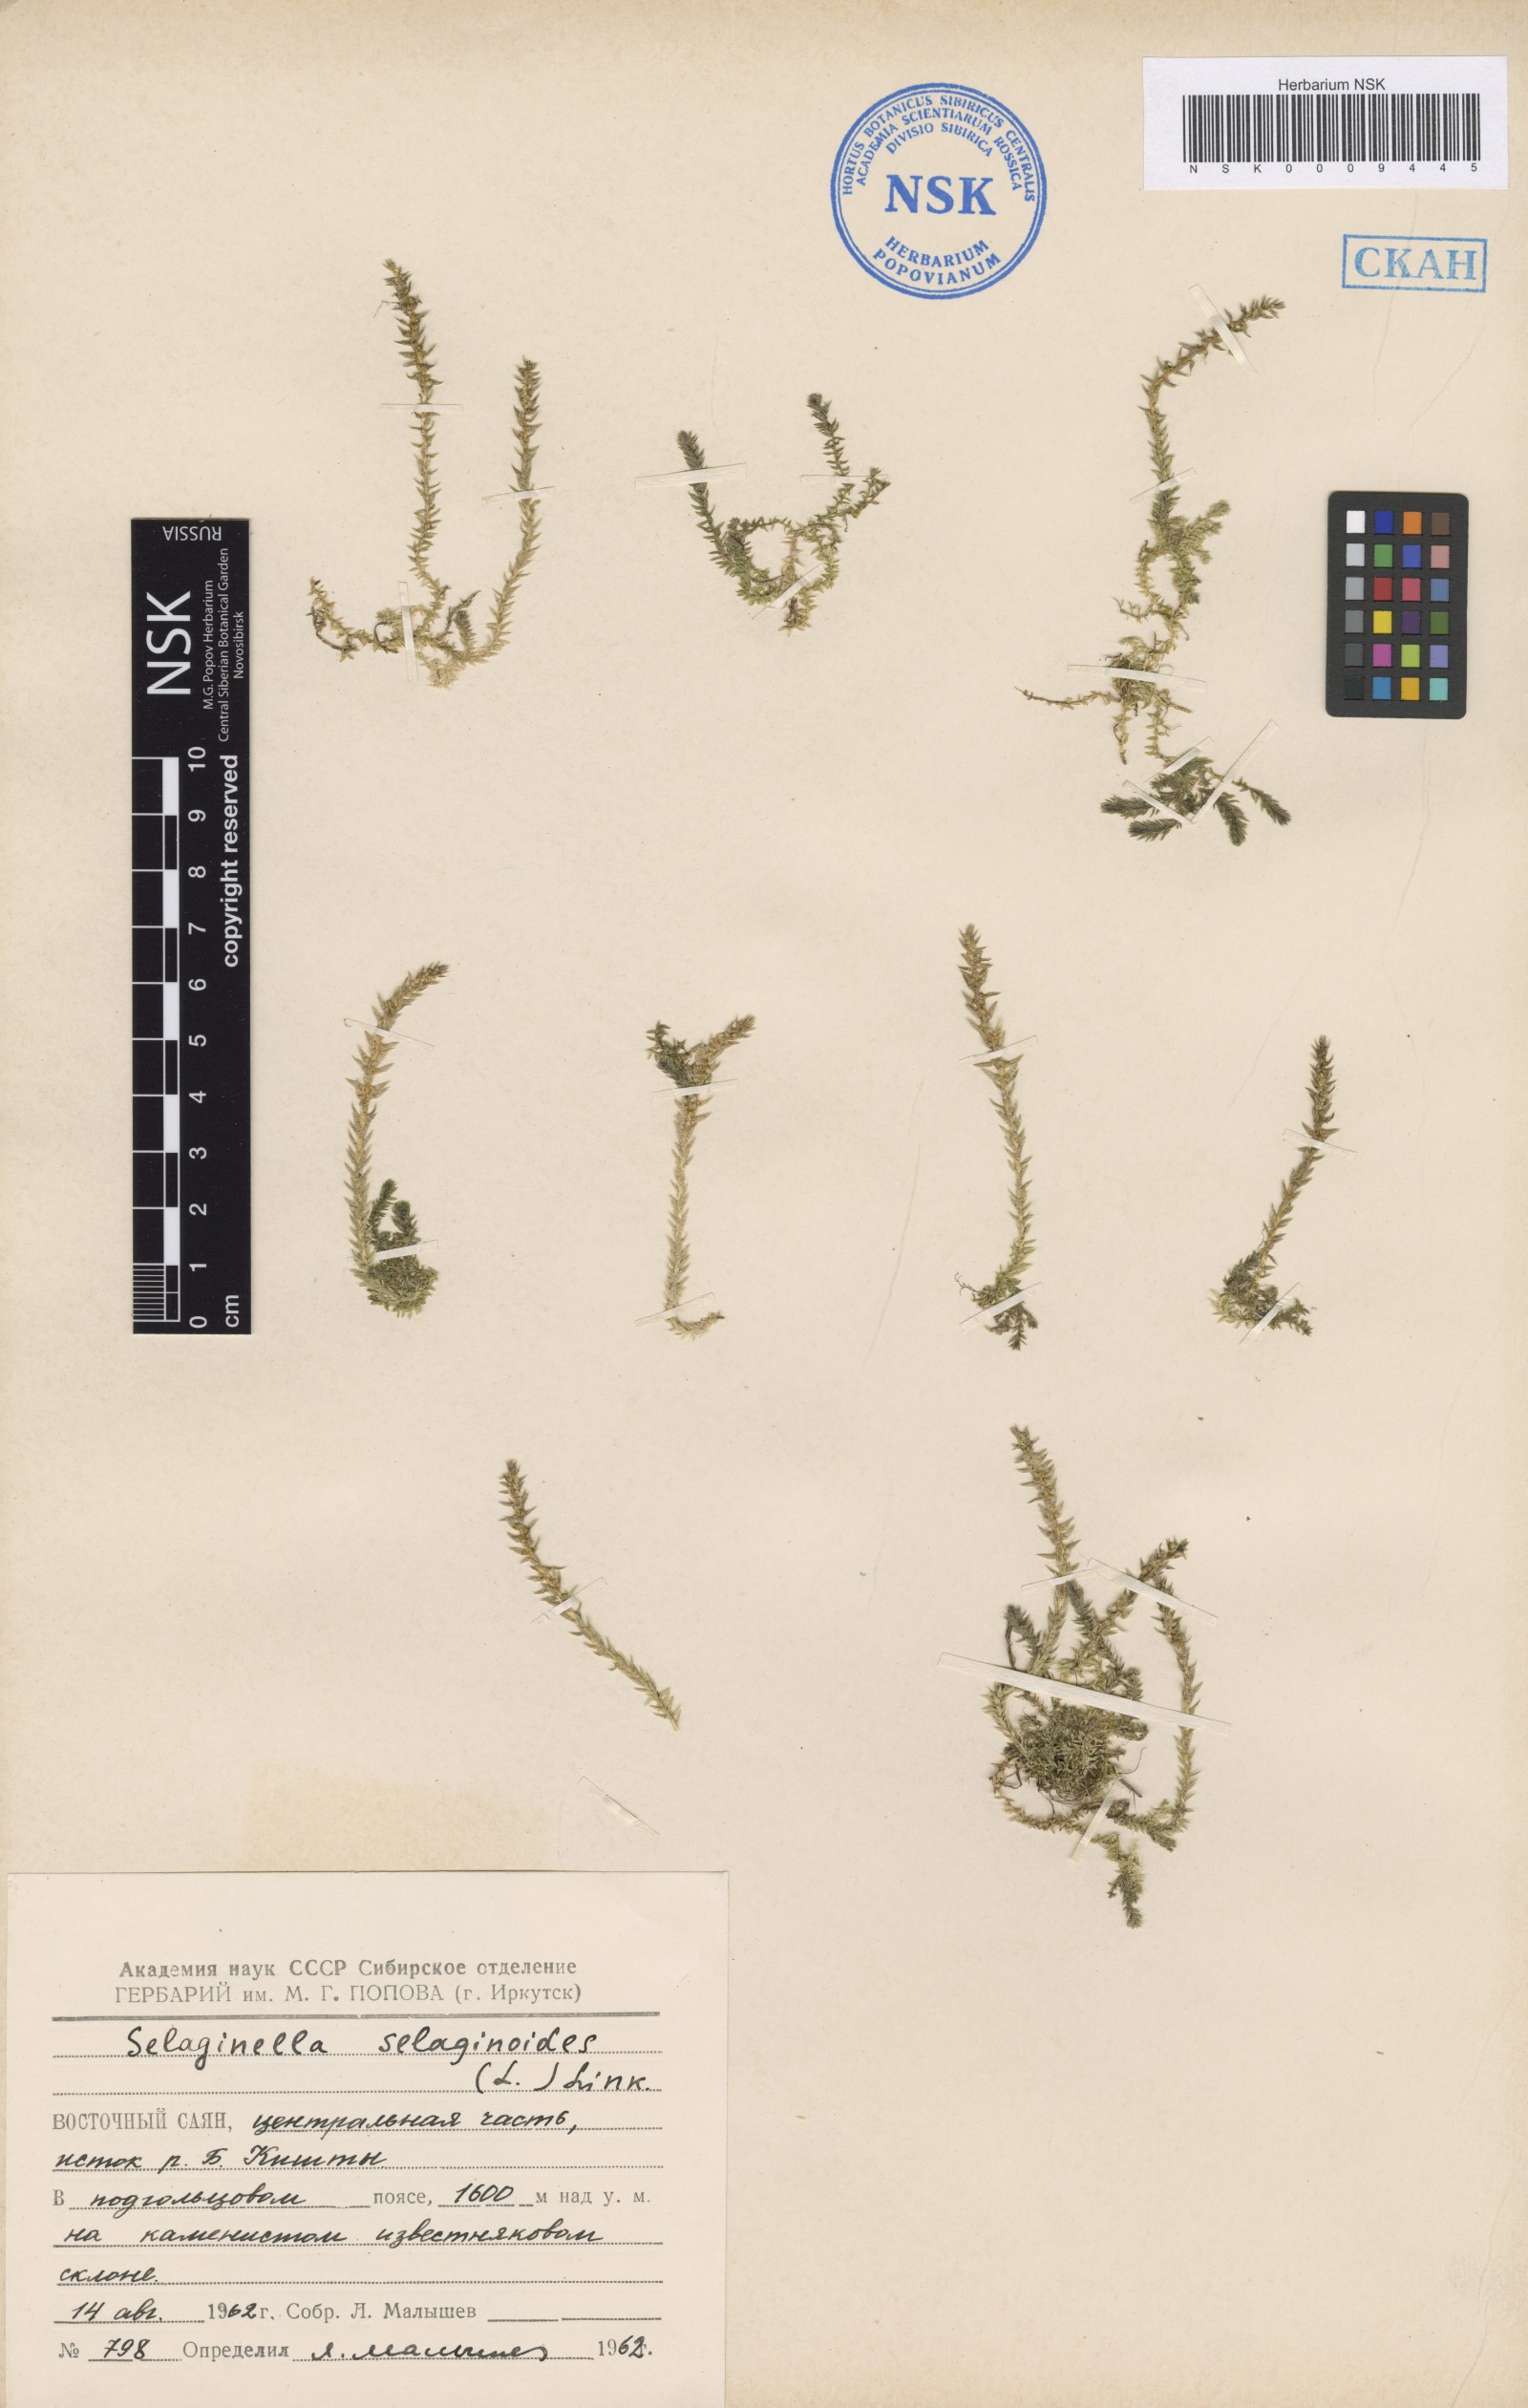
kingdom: Plantae
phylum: Tracheophyta
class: Lycopodiopsida
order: Selaginellales
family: Selaginellaceae
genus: Selaginella
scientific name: Selaginella selaginoides
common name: Prickly mountain-moss
